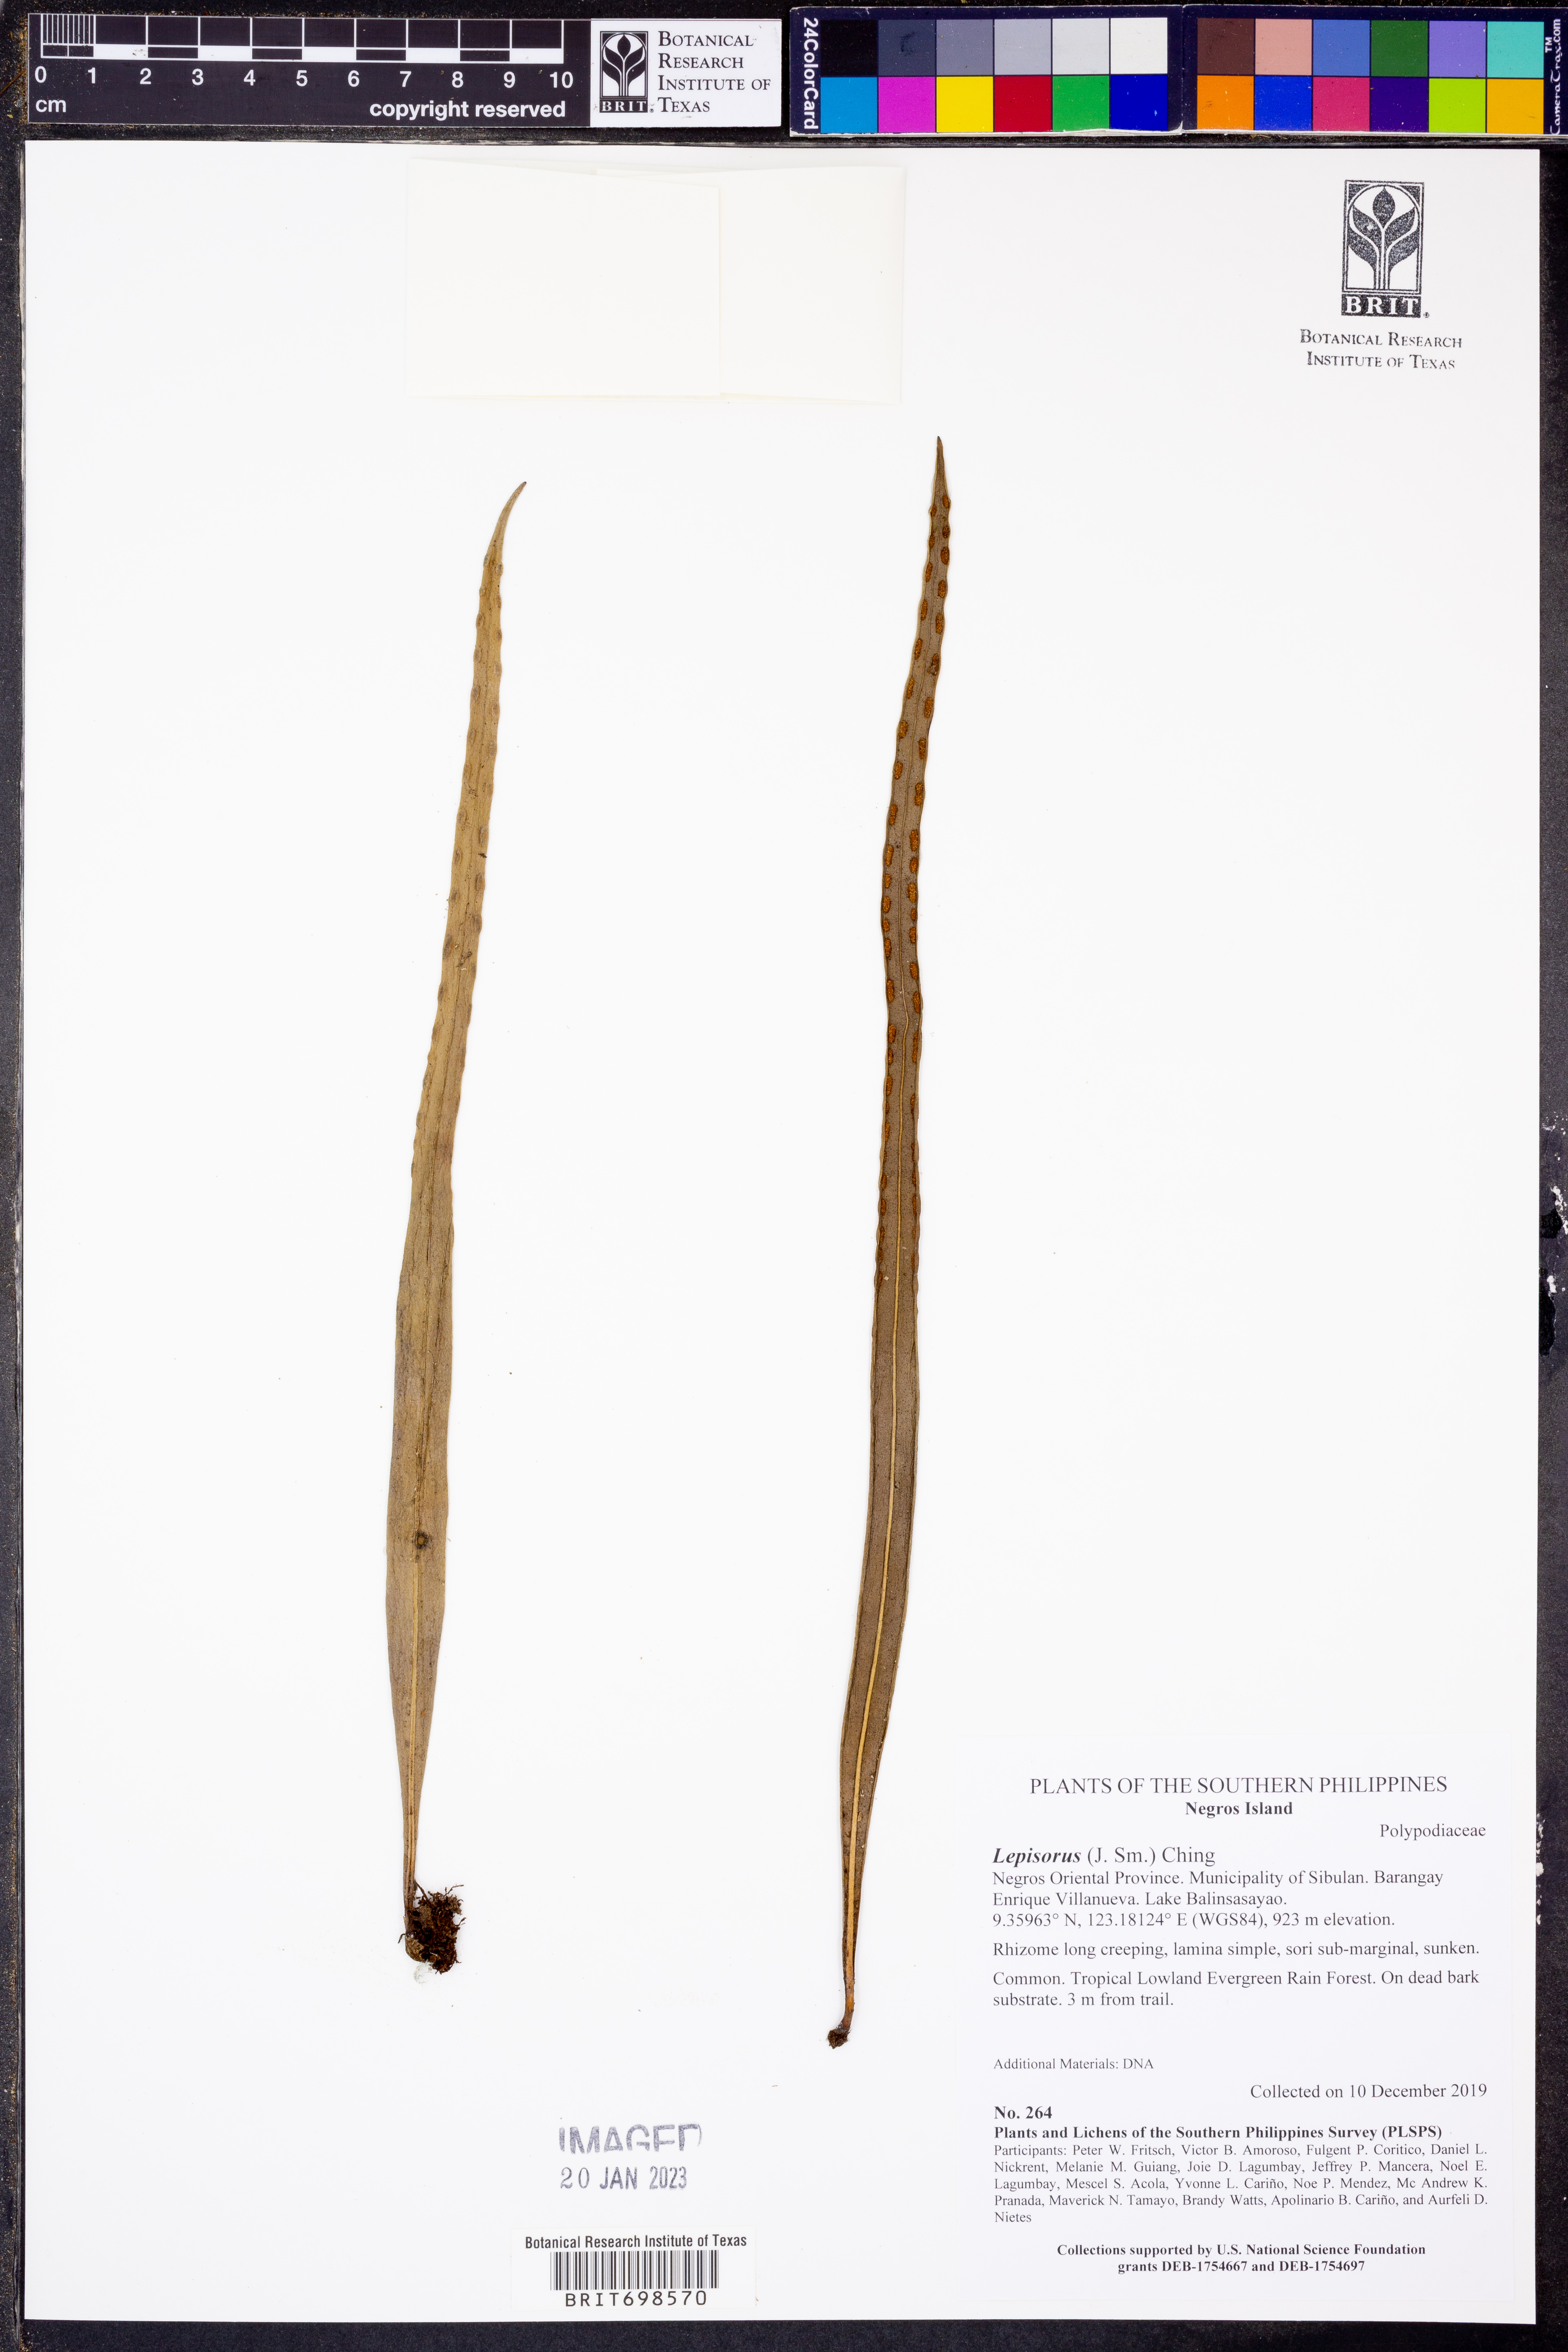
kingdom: Plantae
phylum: Tracheophyta
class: Polypodiopsida
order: Polypodiales
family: Polypodiaceae
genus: Lepisorus
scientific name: Lepisorus
